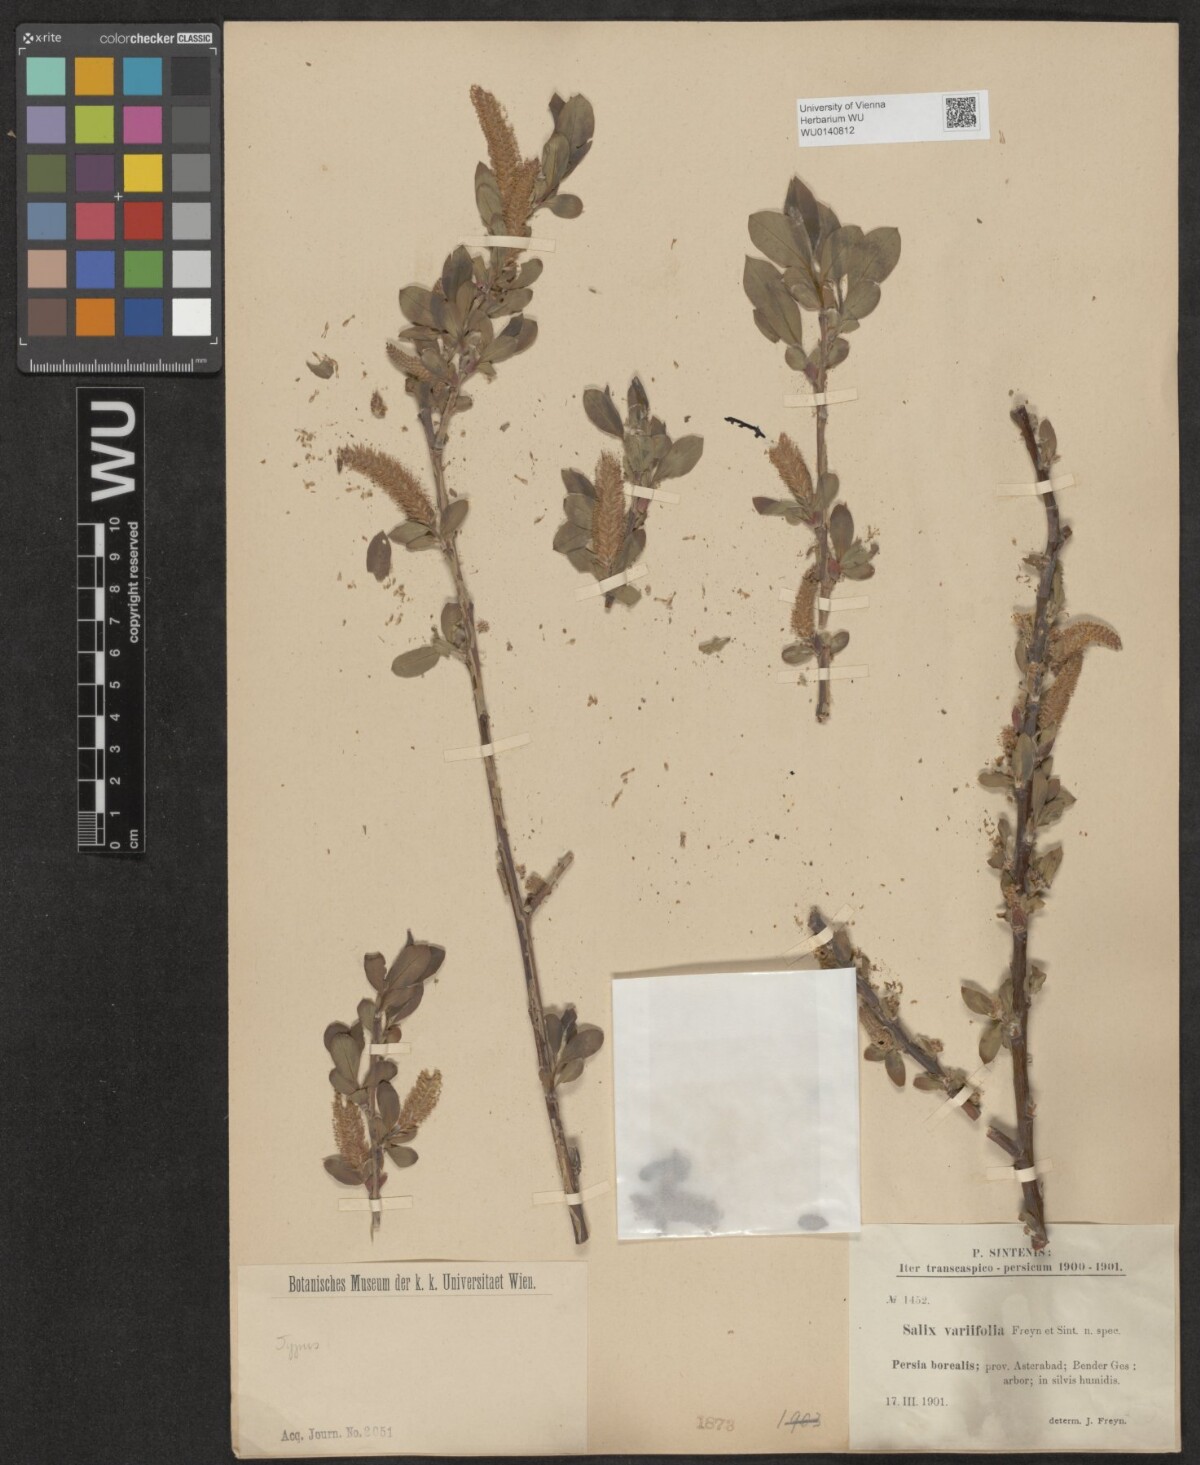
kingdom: Plantae
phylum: Tracheophyta
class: Magnoliopsida
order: Malpighiales
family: Salicaceae
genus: Salix
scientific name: Salix excelsa
